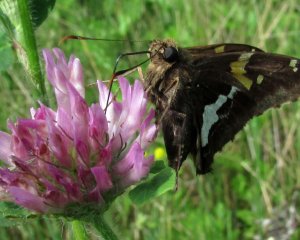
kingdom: Animalia
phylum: Arthropoda
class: Insecta
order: Lepidoptera
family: Hesperiidae
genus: Epargyreus
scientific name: Epargyreus clarus
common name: Silver-spotted Skipper
